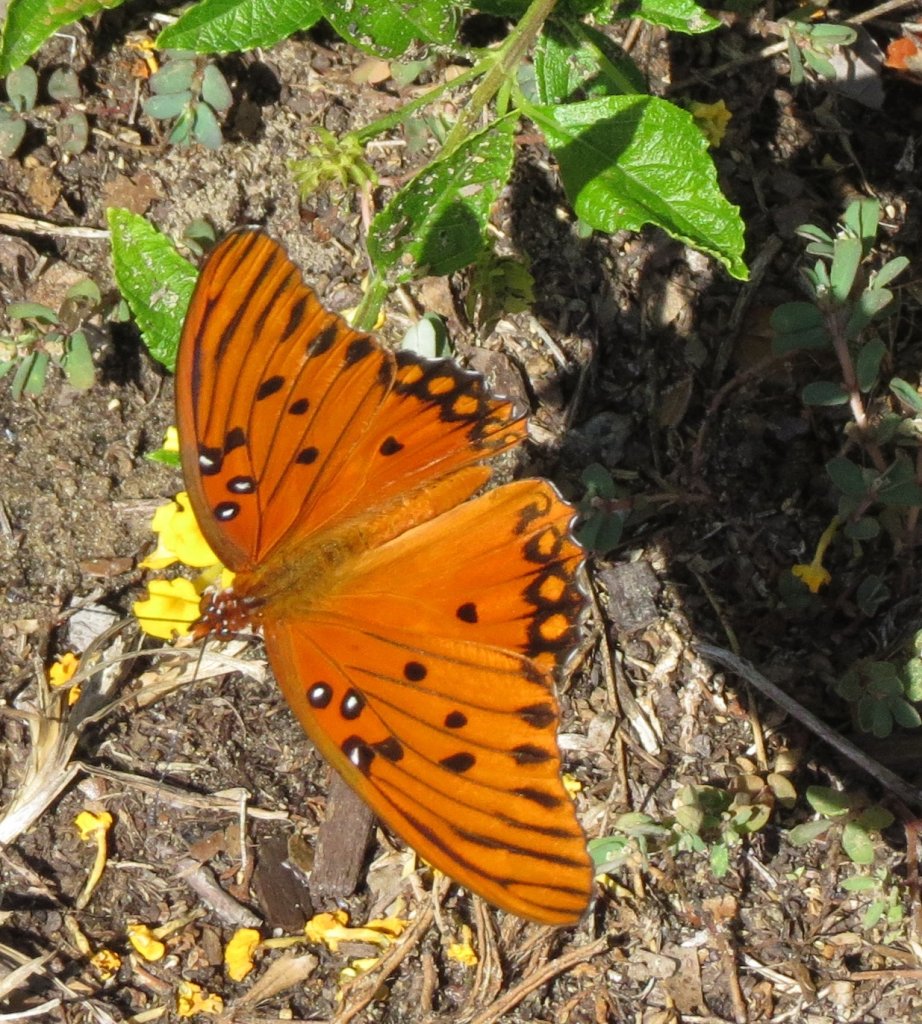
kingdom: Animalia
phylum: Arthropoda
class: Insecta
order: Lepidoptera
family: Nymphalidae
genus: Dione
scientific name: Dione vanillae
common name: Gulf Fritillary
